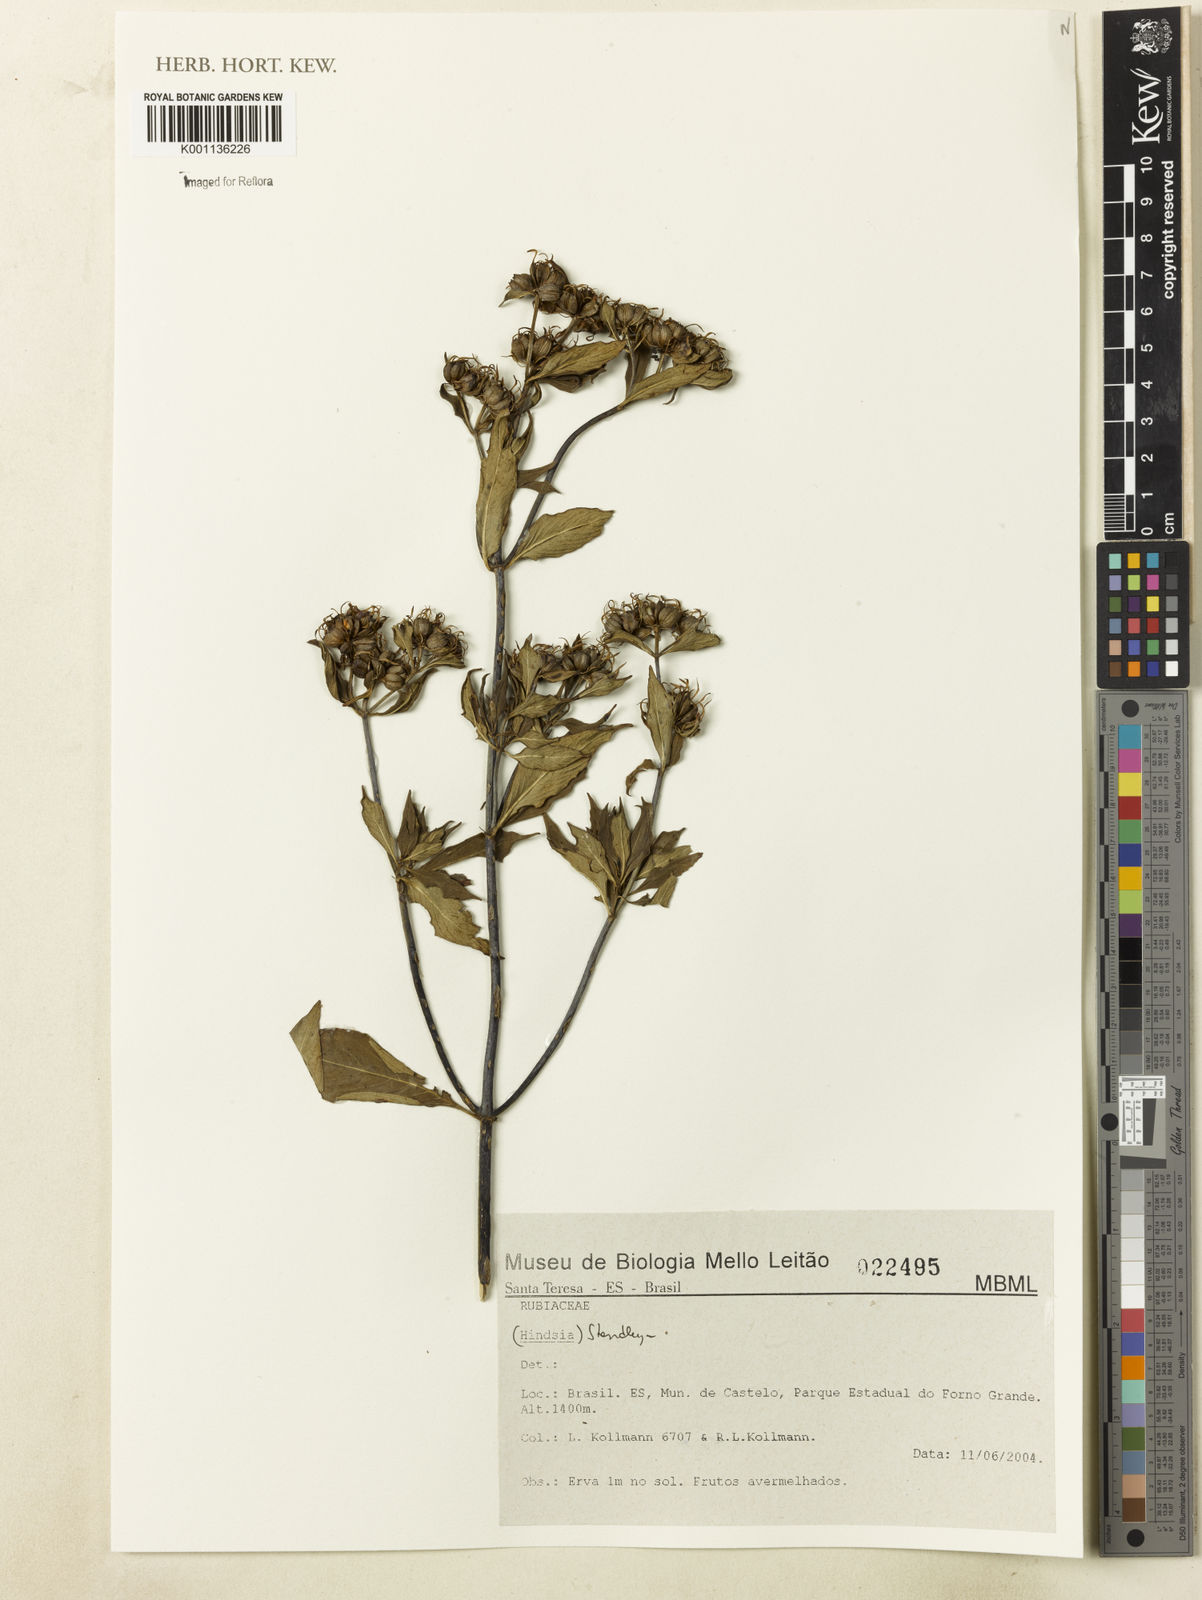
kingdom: Plantae
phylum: Tracheophyta
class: Magnoliopsida
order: Gentianales
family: Rubiaceae
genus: Standleya
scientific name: Standleya
